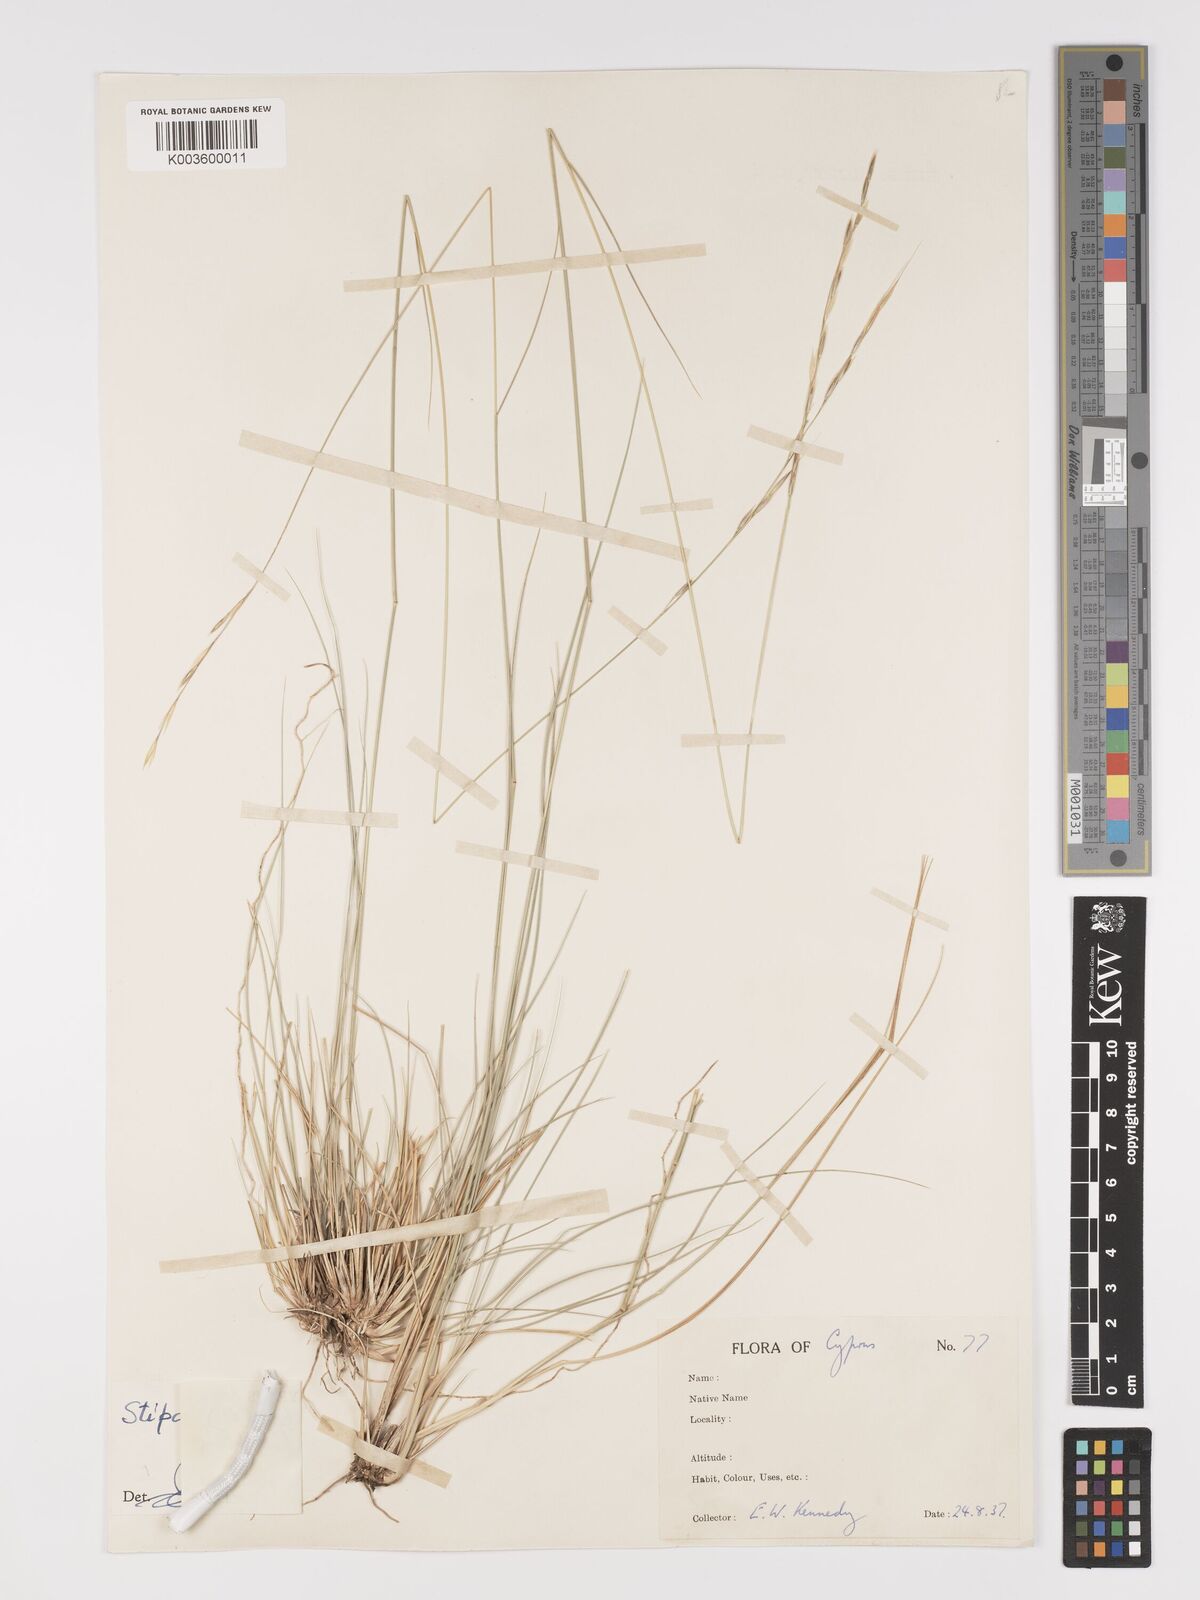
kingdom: Plantae
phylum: Tracheophyta
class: Liliopsida
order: Poales
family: Poaceae
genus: Achnatherum
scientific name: Achnatherum bromoides
